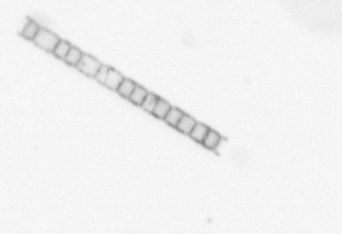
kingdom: Chromista
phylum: Ochrophyta
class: Bacillariophyceae
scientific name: Bacillariophyceae
